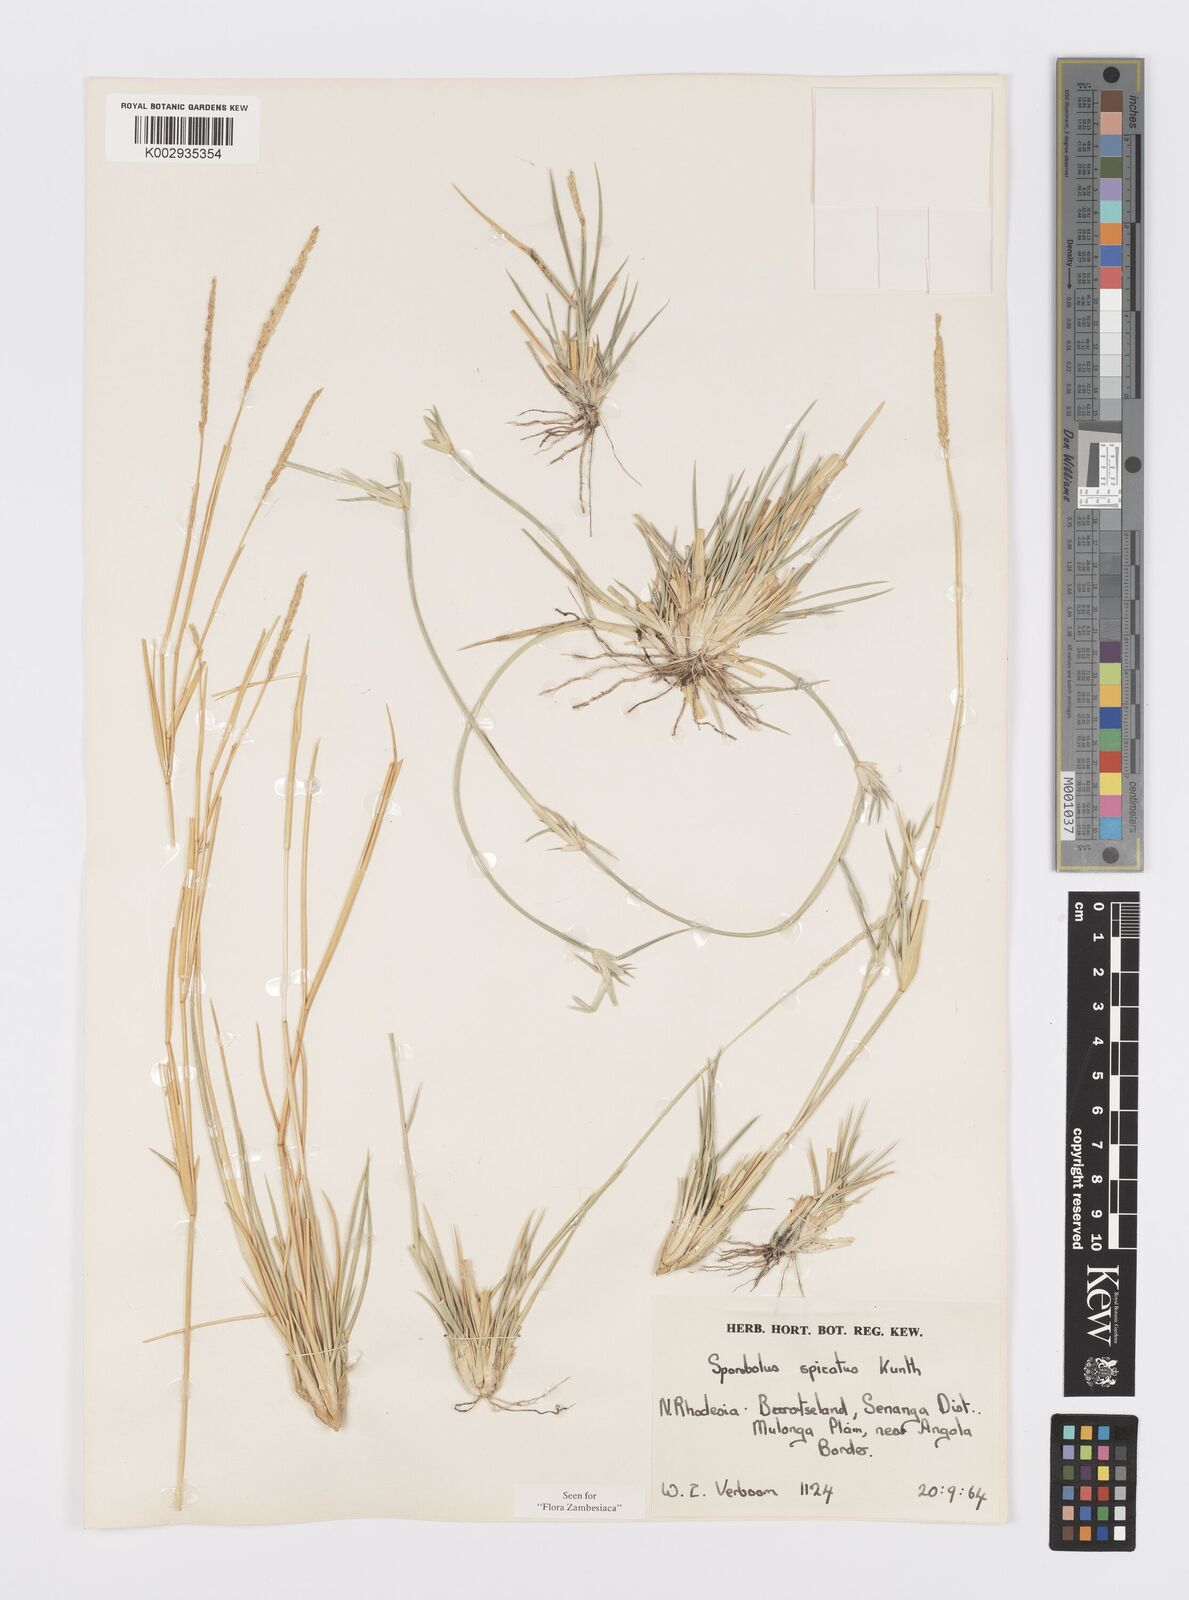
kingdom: Plantae
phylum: Tracheophyta
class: Liliopsida
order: Poales
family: Poaceae
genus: Sporobolus
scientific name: Sporobolus spicatus
